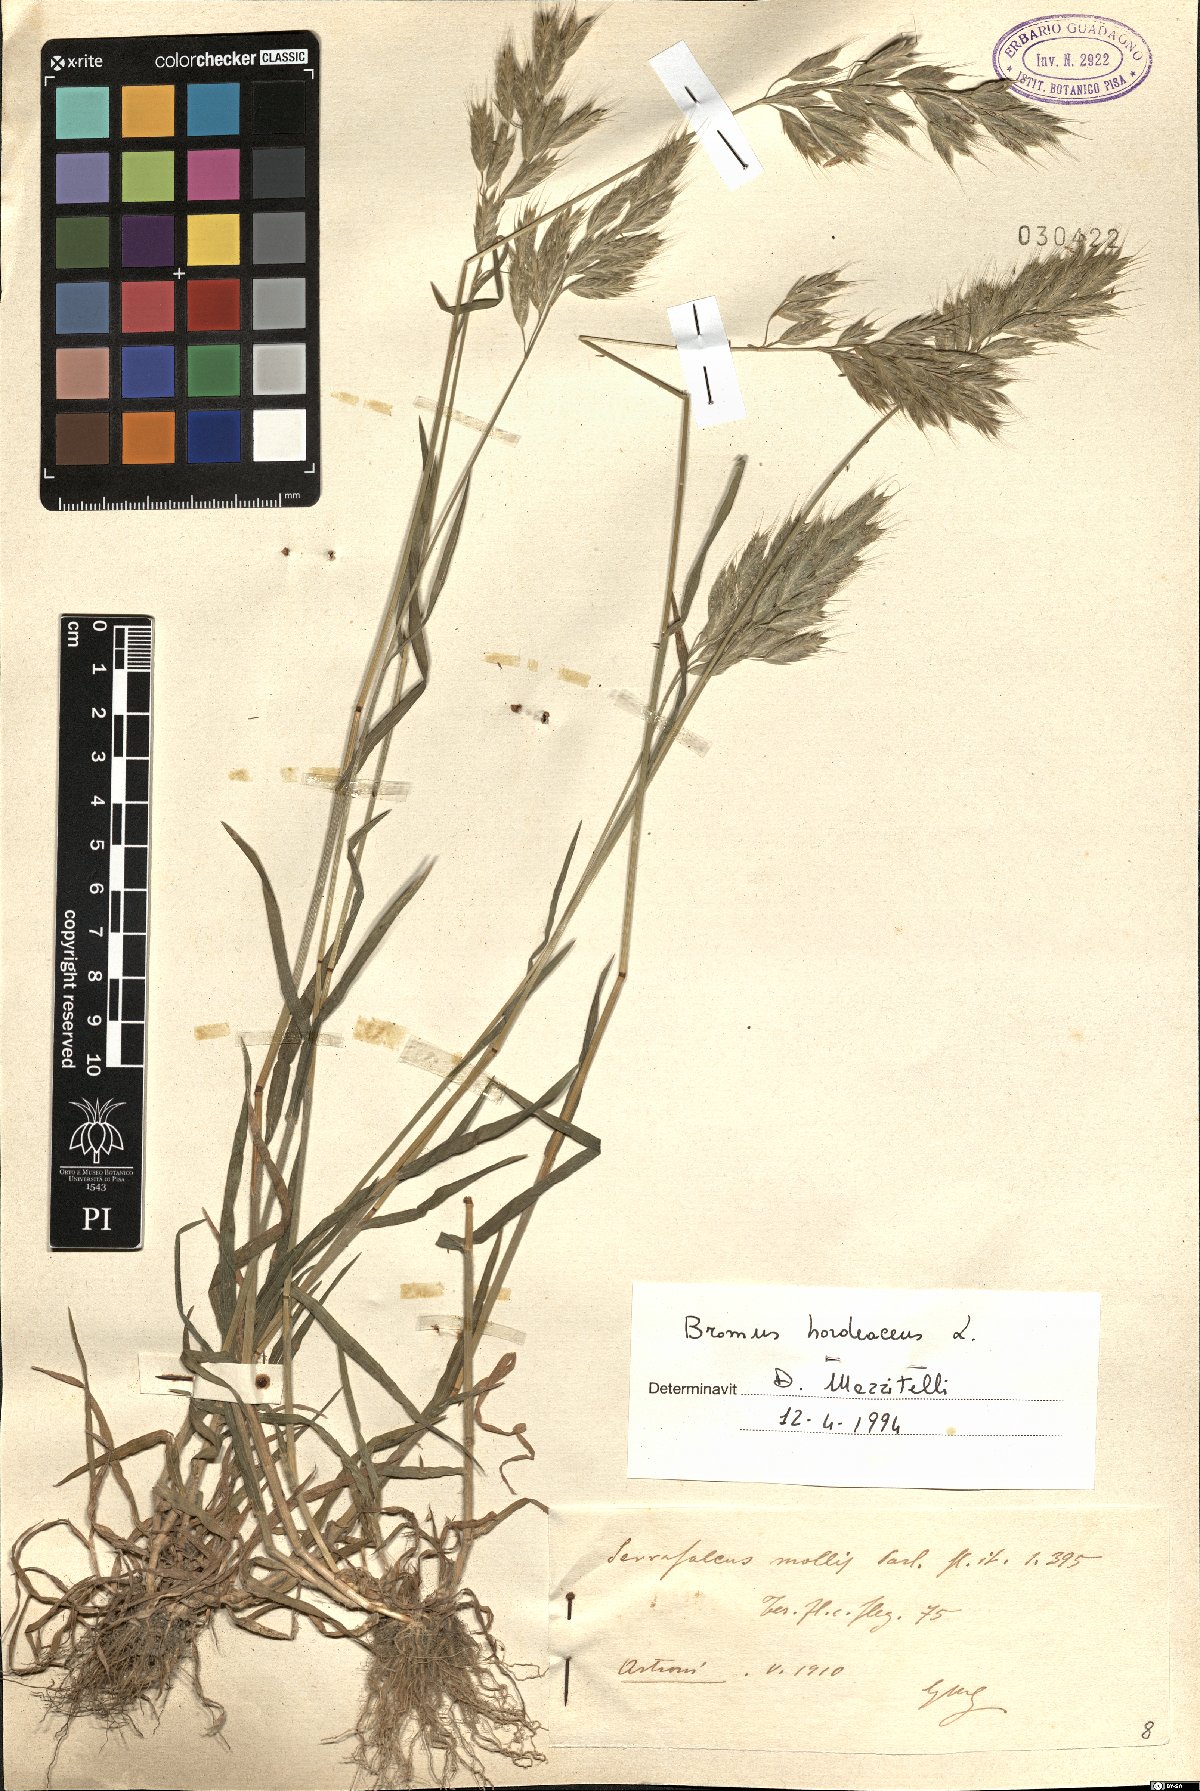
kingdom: Plantae
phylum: Tracheophyta
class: Liliopsida
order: Poales
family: Poaceae
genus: Bromus
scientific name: Bromus hordeaceus
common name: Soft brome
